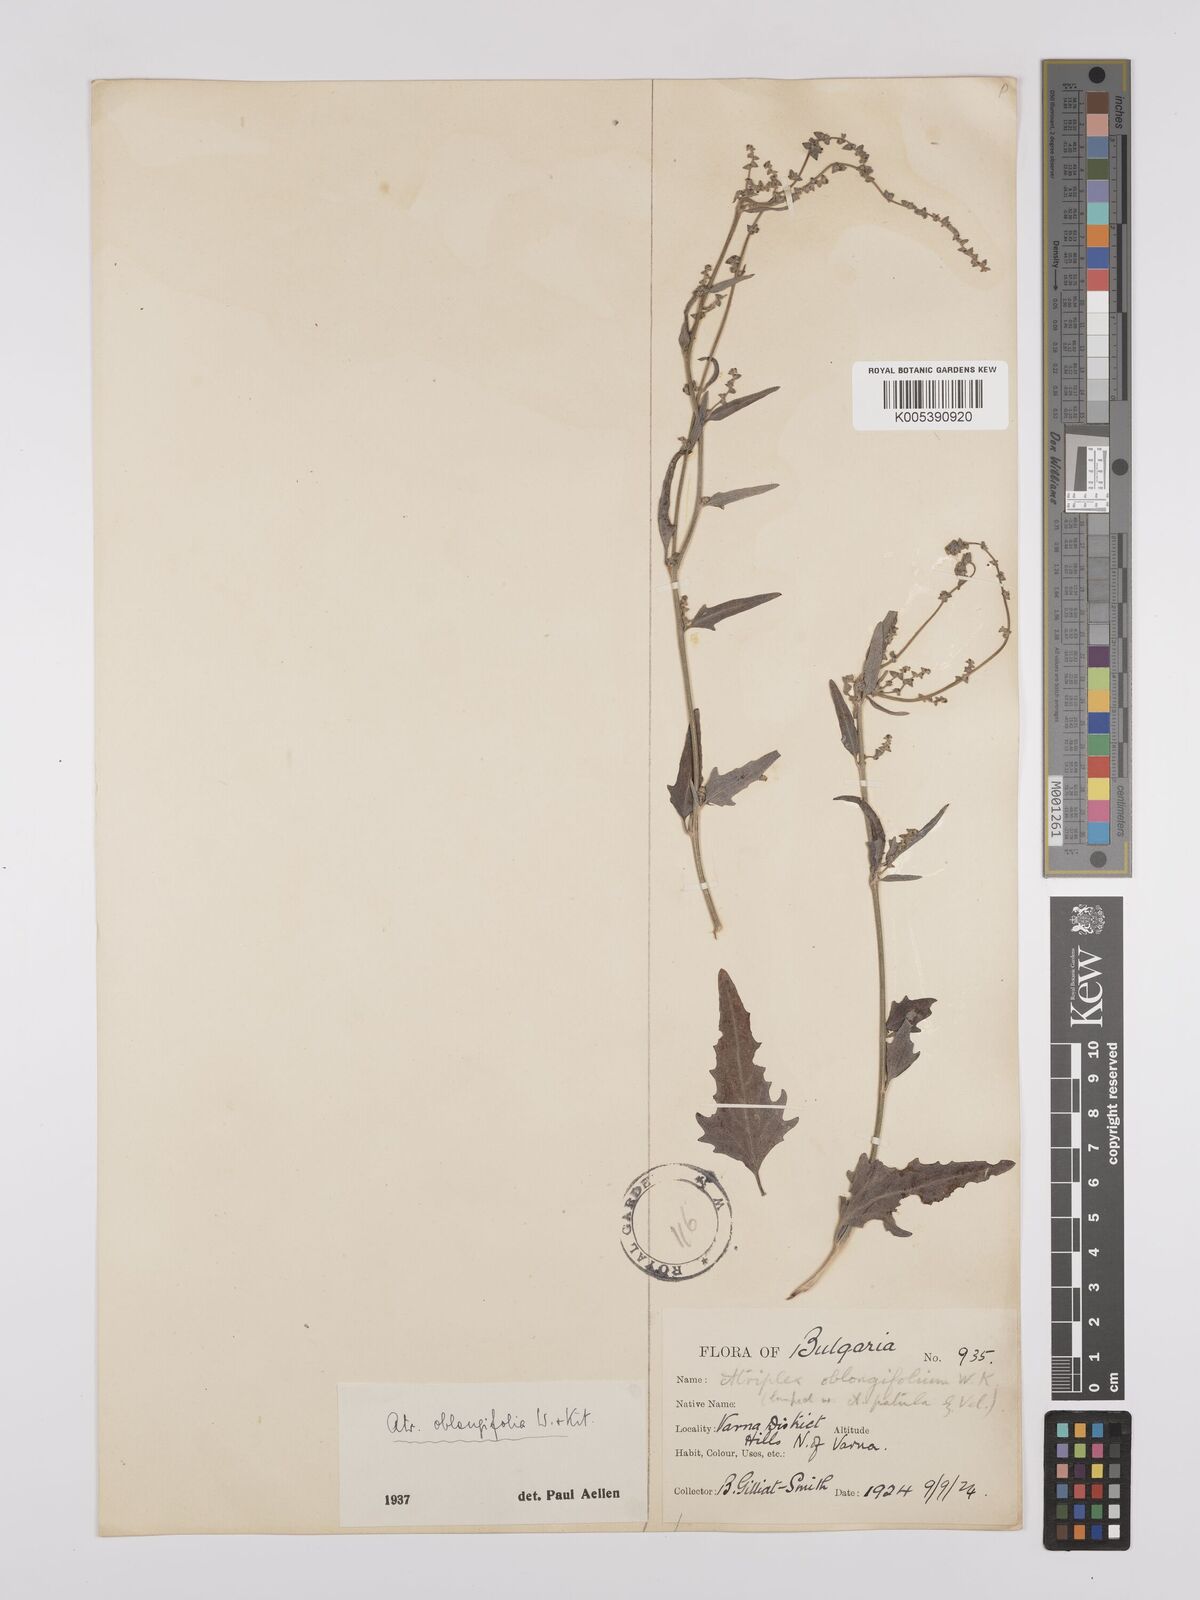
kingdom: Plantae
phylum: Tracheophyta
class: Magnoliopsida
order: Caryophyllales
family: Amaranthaceae
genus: Atriplex
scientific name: Atriplex
